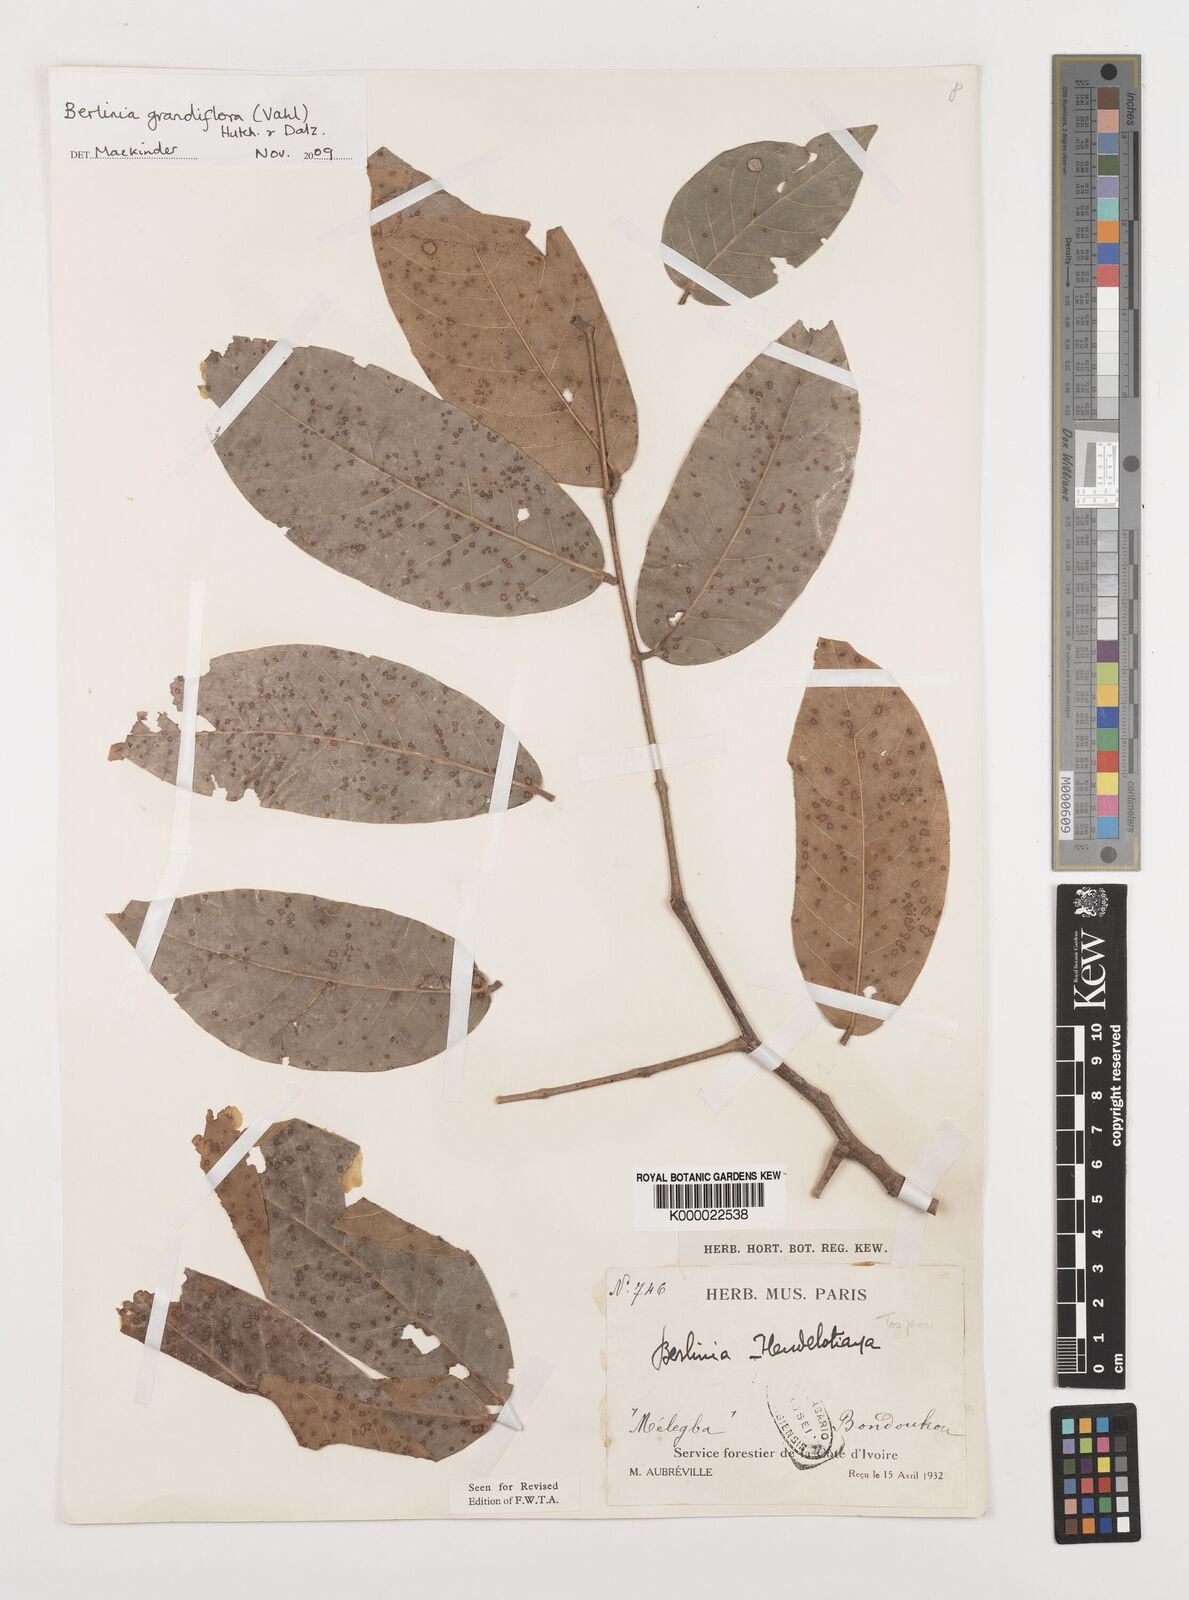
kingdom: Plantae
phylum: Tracheophyta
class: Magnoliopsida
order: Fabales
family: Fabaceae
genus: Berlinia
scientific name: Berlinia grandiflora
